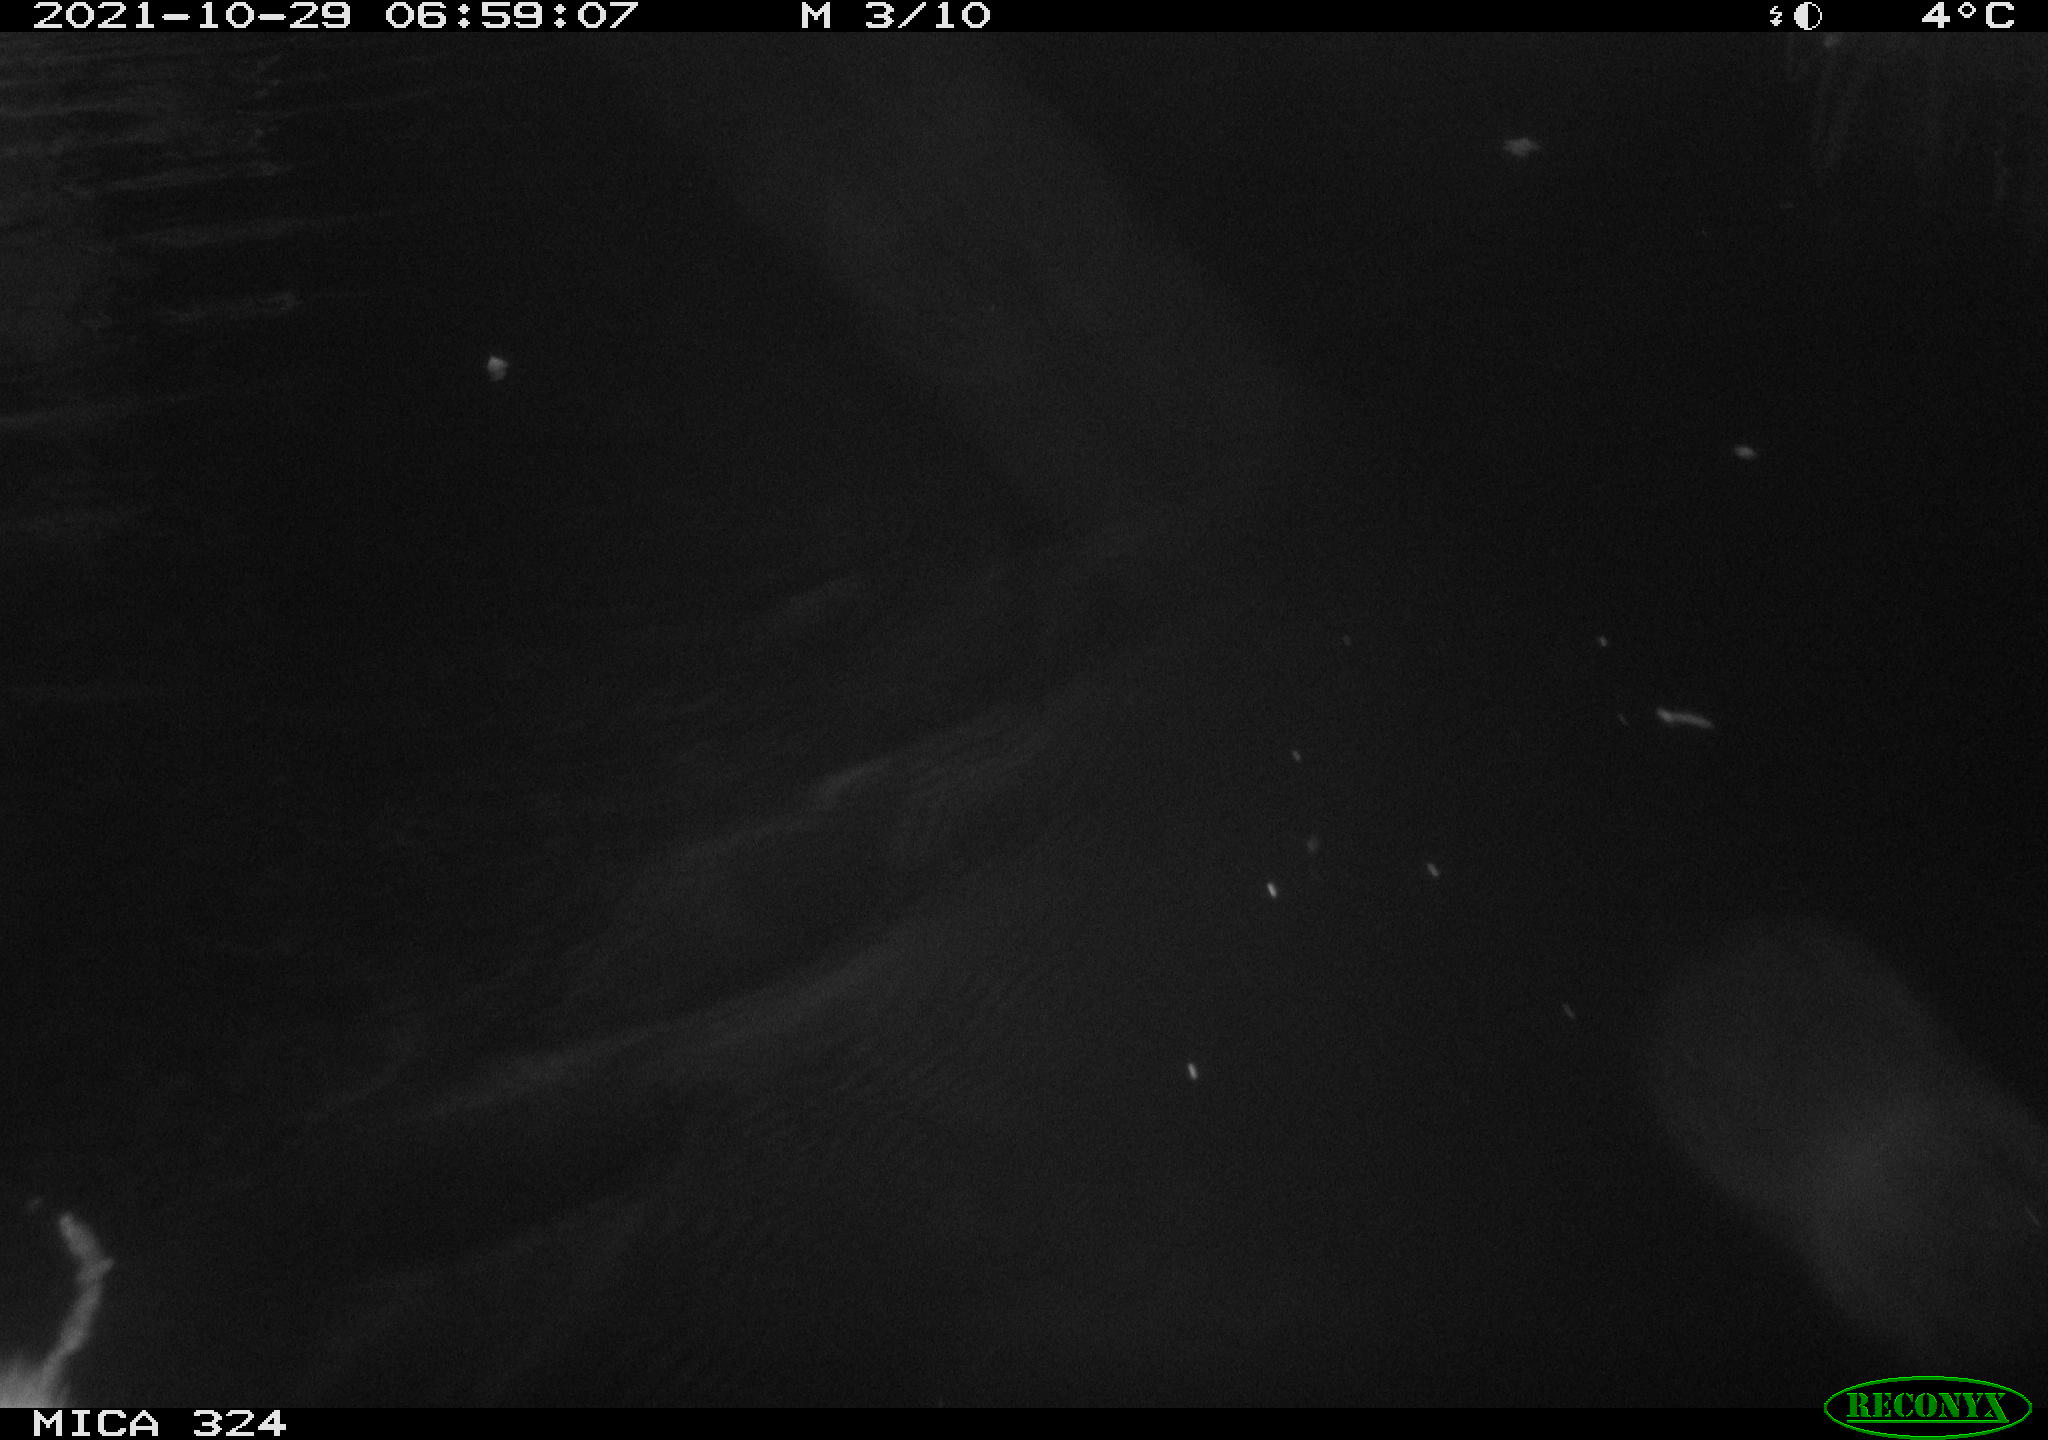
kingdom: Animalia
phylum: Chordata
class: Mammalia
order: Rodentia
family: Cricetidae
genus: Ondatra
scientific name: Ondatra zibethicus
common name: Muskrat
